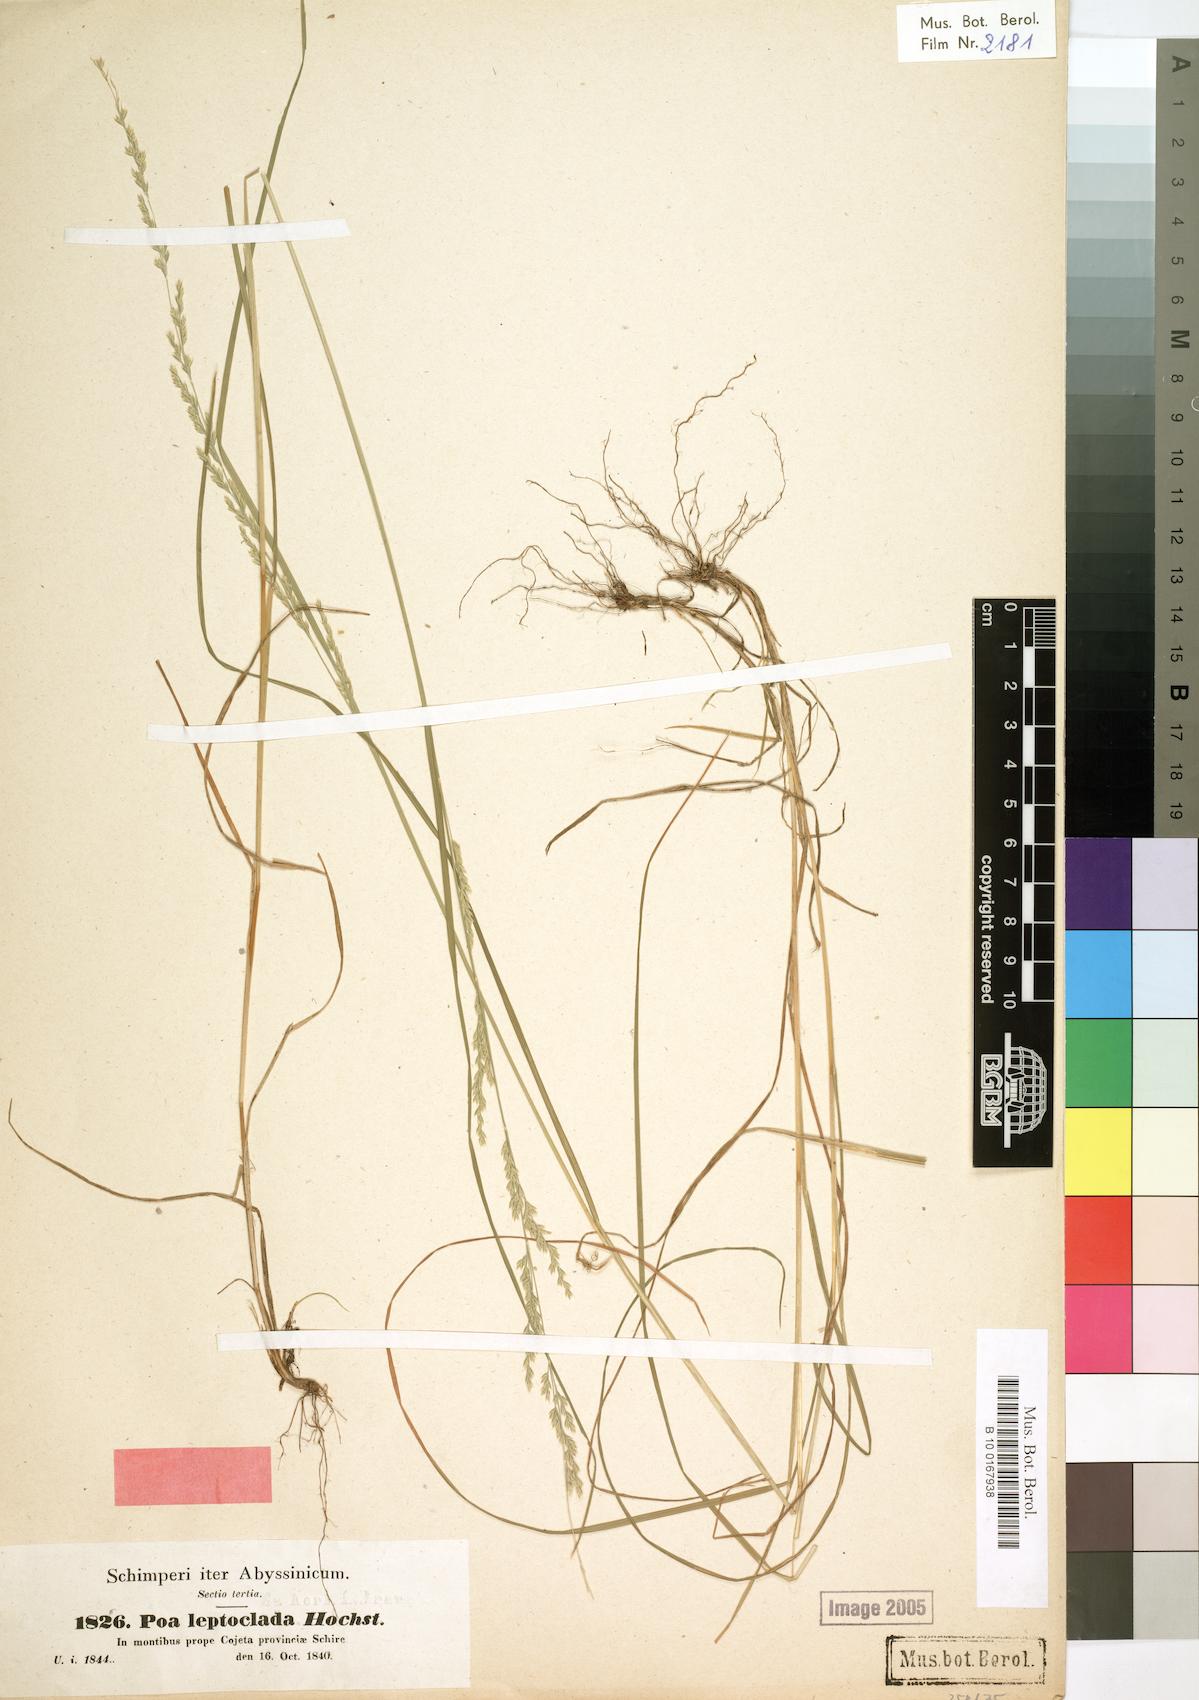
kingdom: Plantae
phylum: Tracheophyta
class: Liliopsida
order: Poales
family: Poaceae
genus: Poa
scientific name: Poa leptoclada
